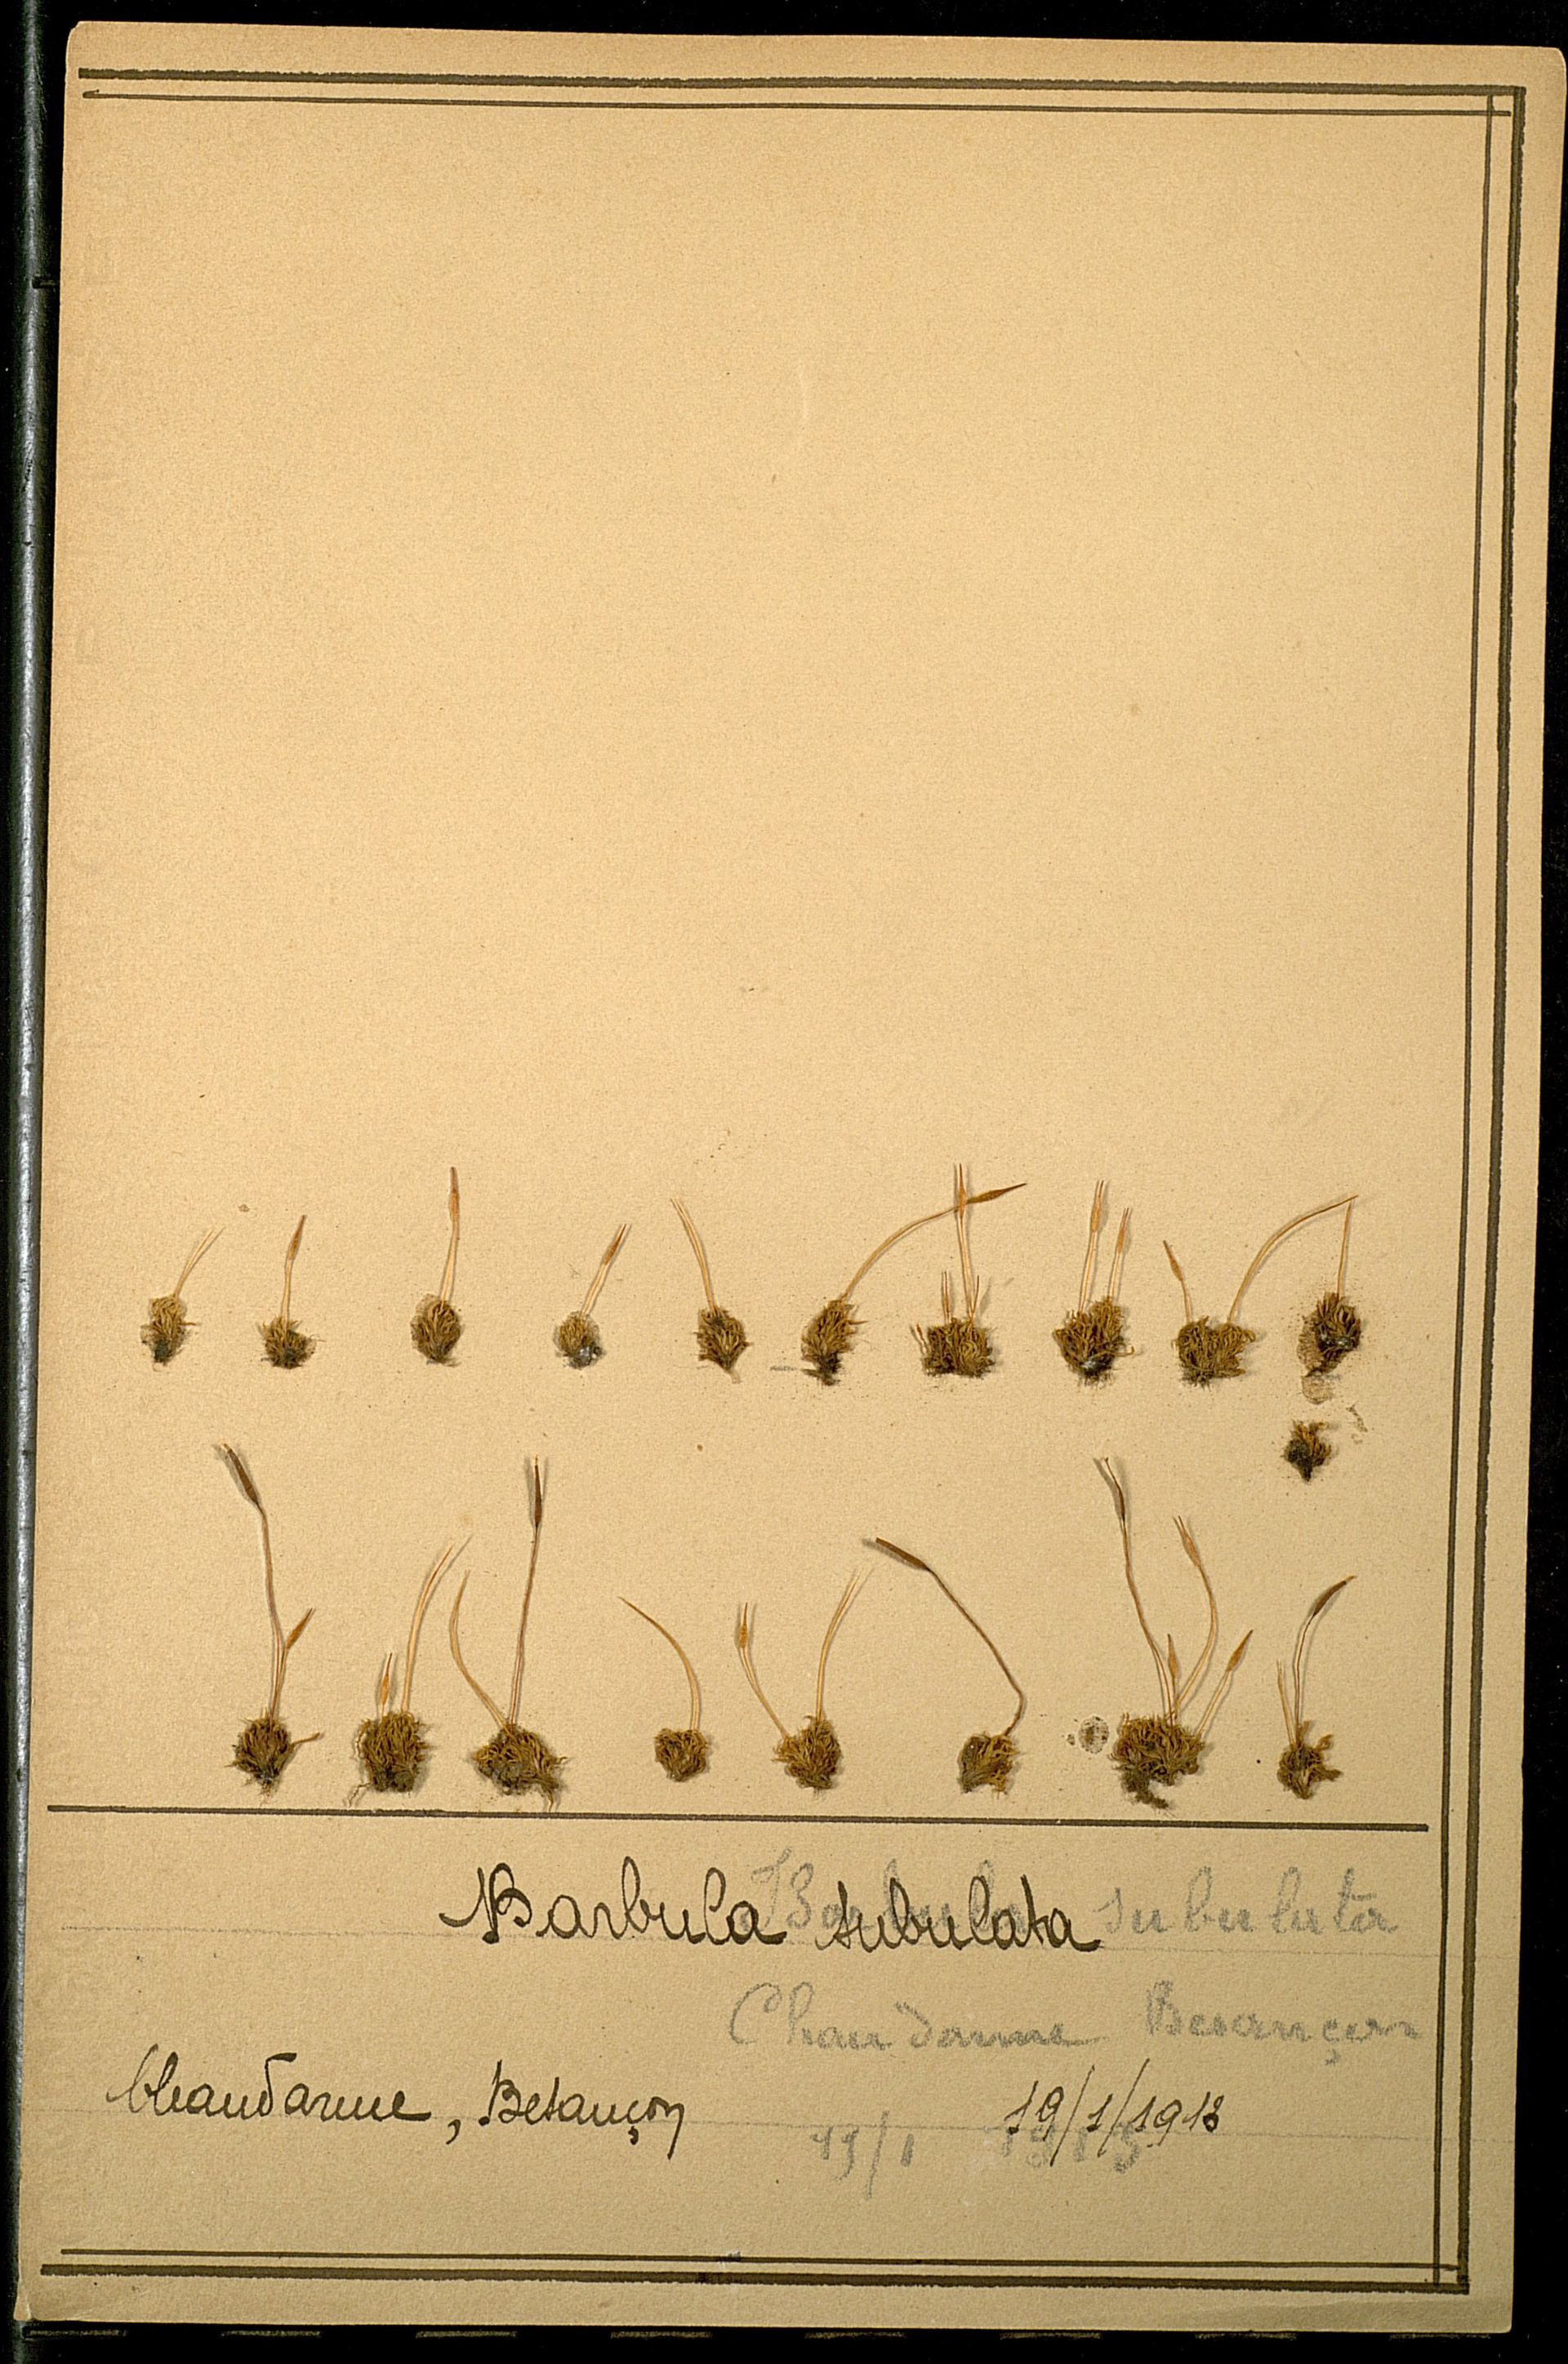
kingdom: Plantae
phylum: Bryophyta
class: Bryopsida
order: Pottiales
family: Pottiaceae
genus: Tortula
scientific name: Tortula subulata
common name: Upright screw-moss
